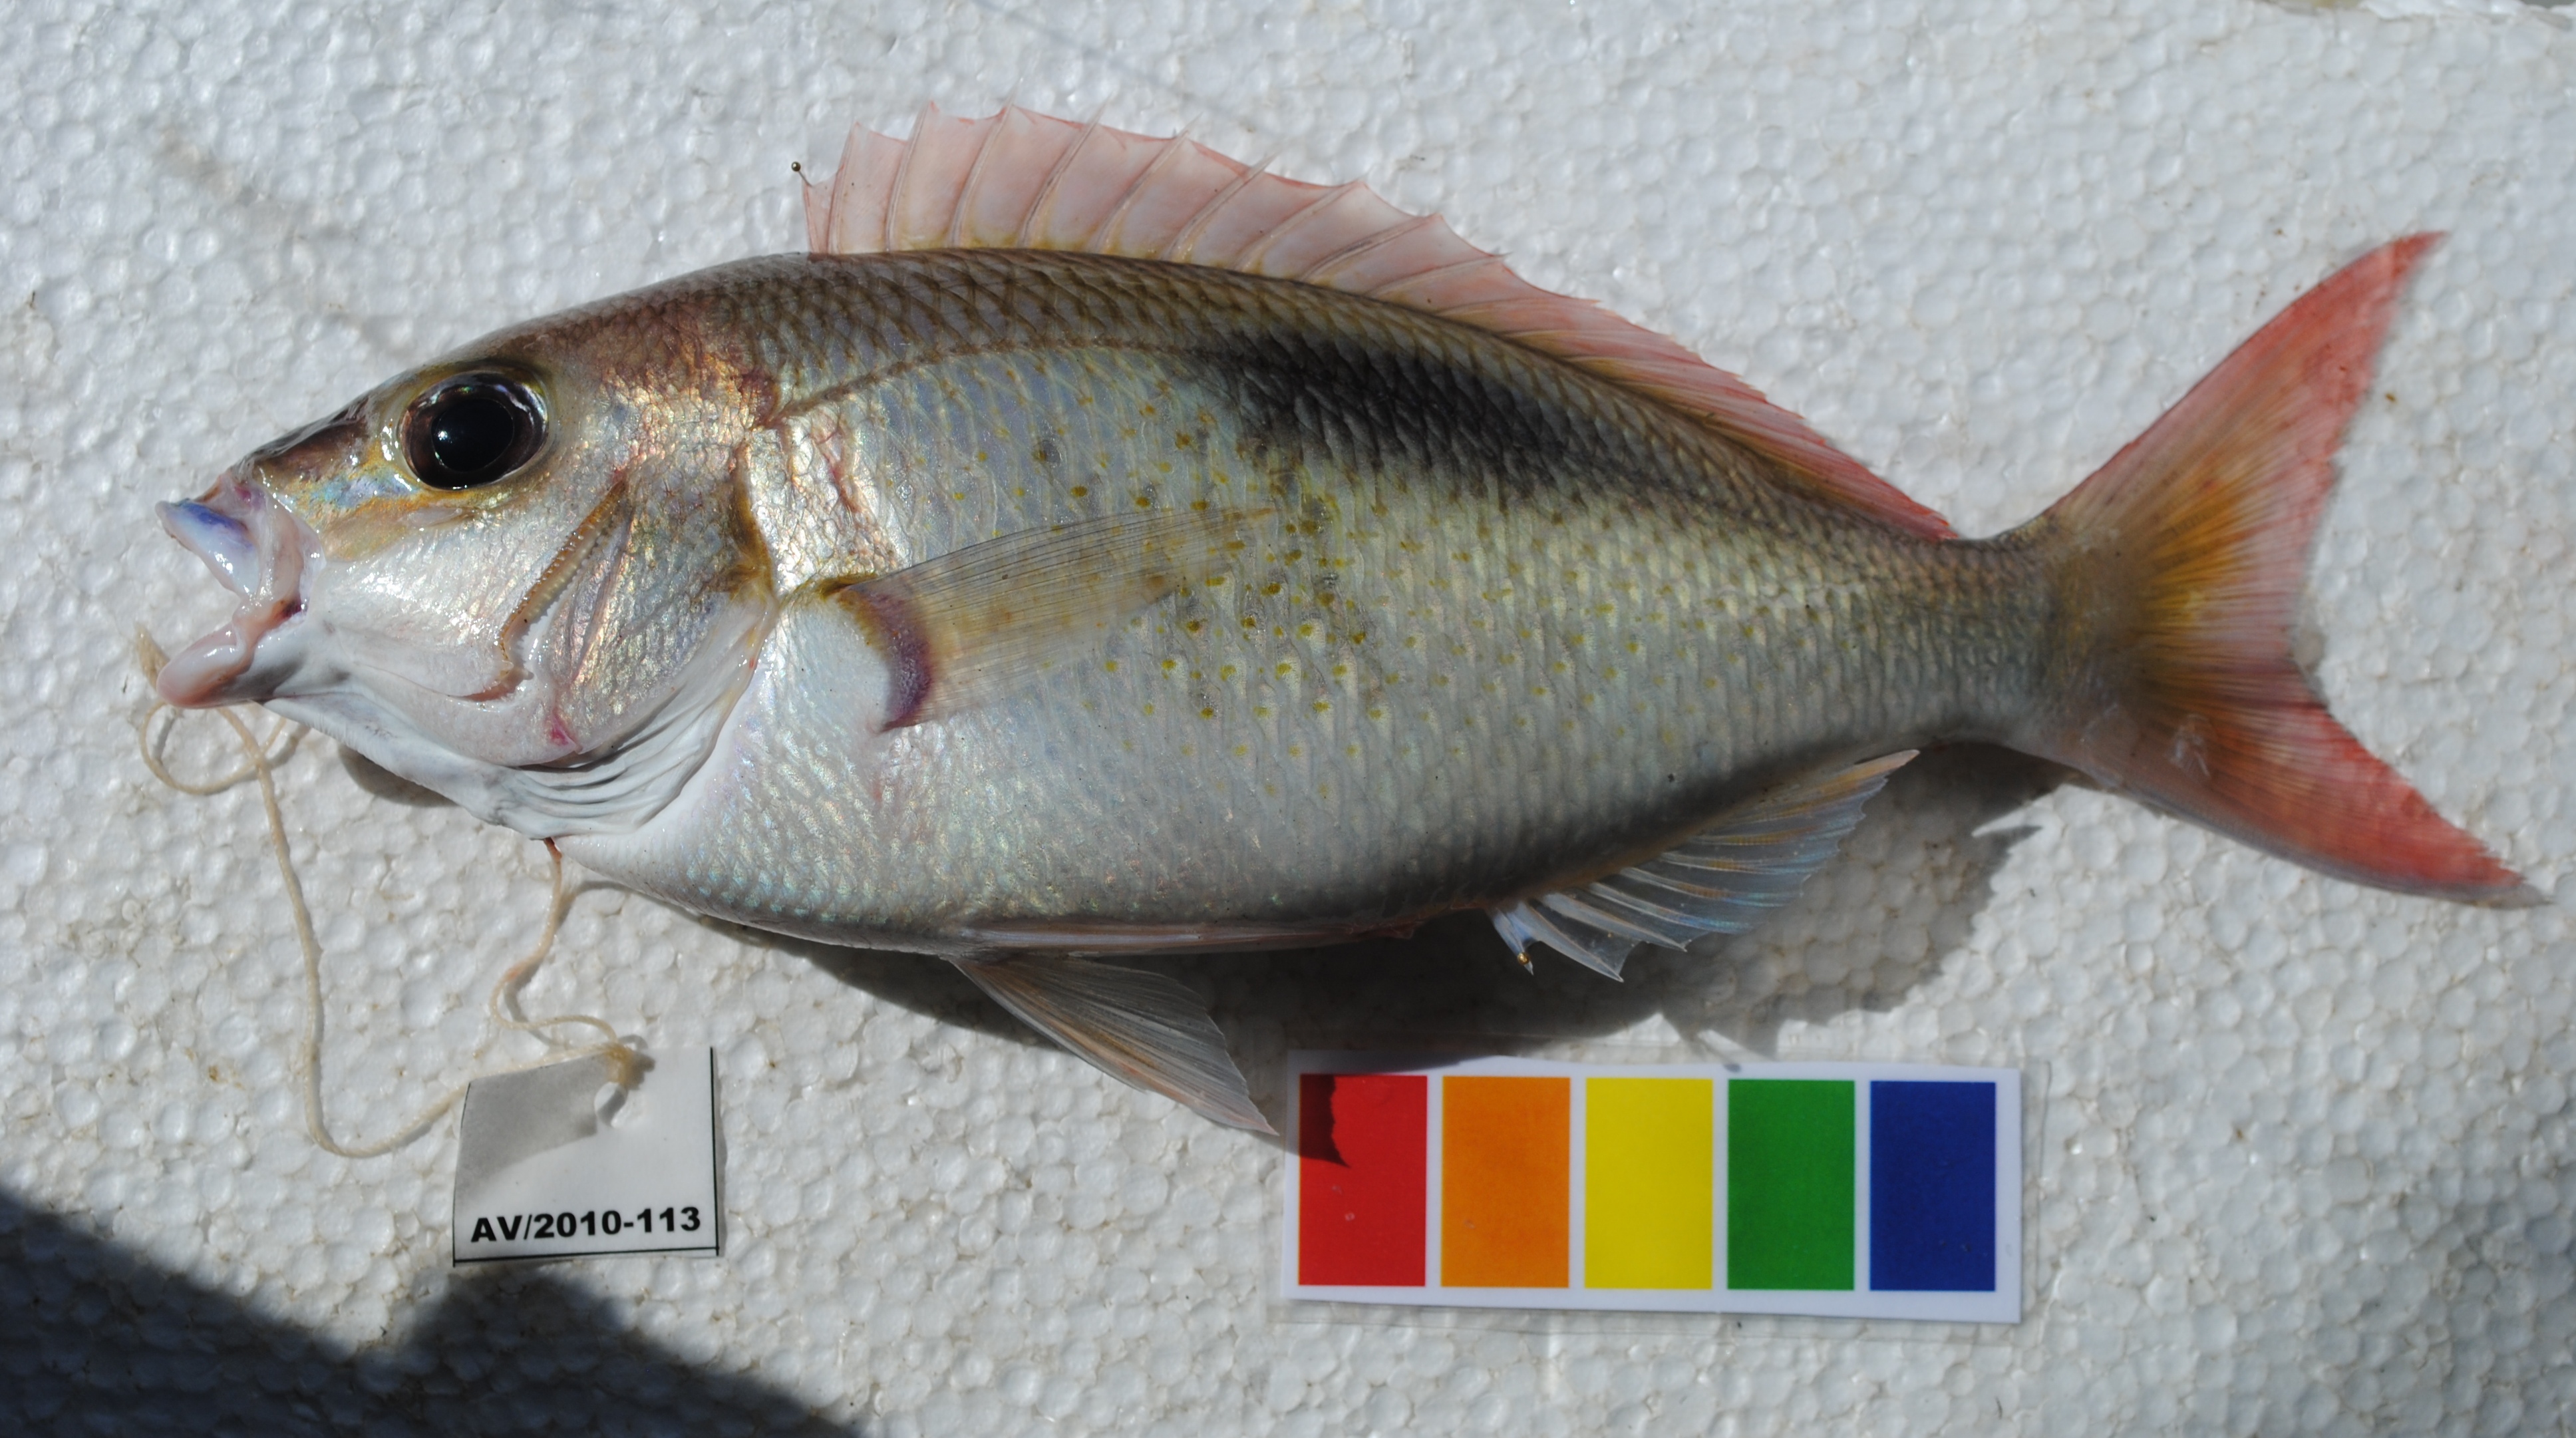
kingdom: Animalia
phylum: Chordata
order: Perciformes
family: Lethrinidae
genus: Lethrinus
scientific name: Lethrinus harak
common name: Blackspot emperor
